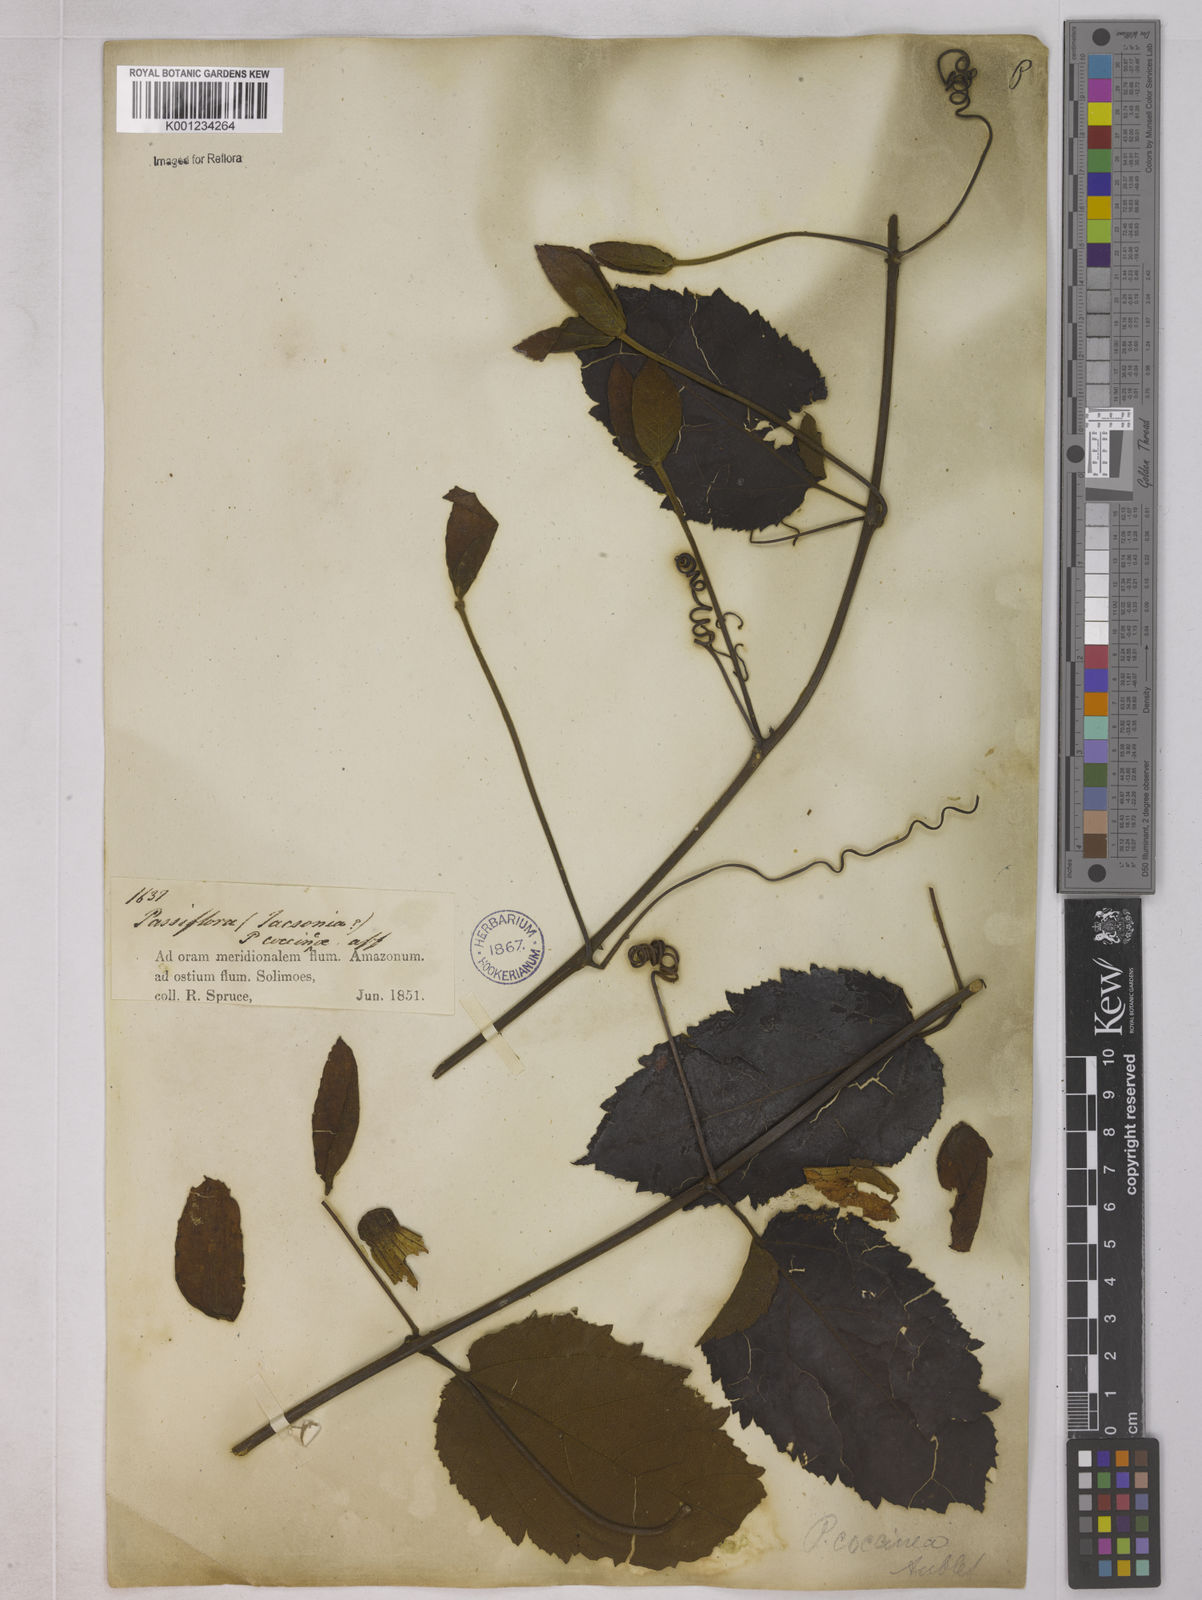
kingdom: Plantae
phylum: Tracheophyta
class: Magnoliopsida
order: Malpighiales
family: Passifloraceae
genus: Passiflora
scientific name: Passiflora coccinea
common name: Scarlet passionflower
